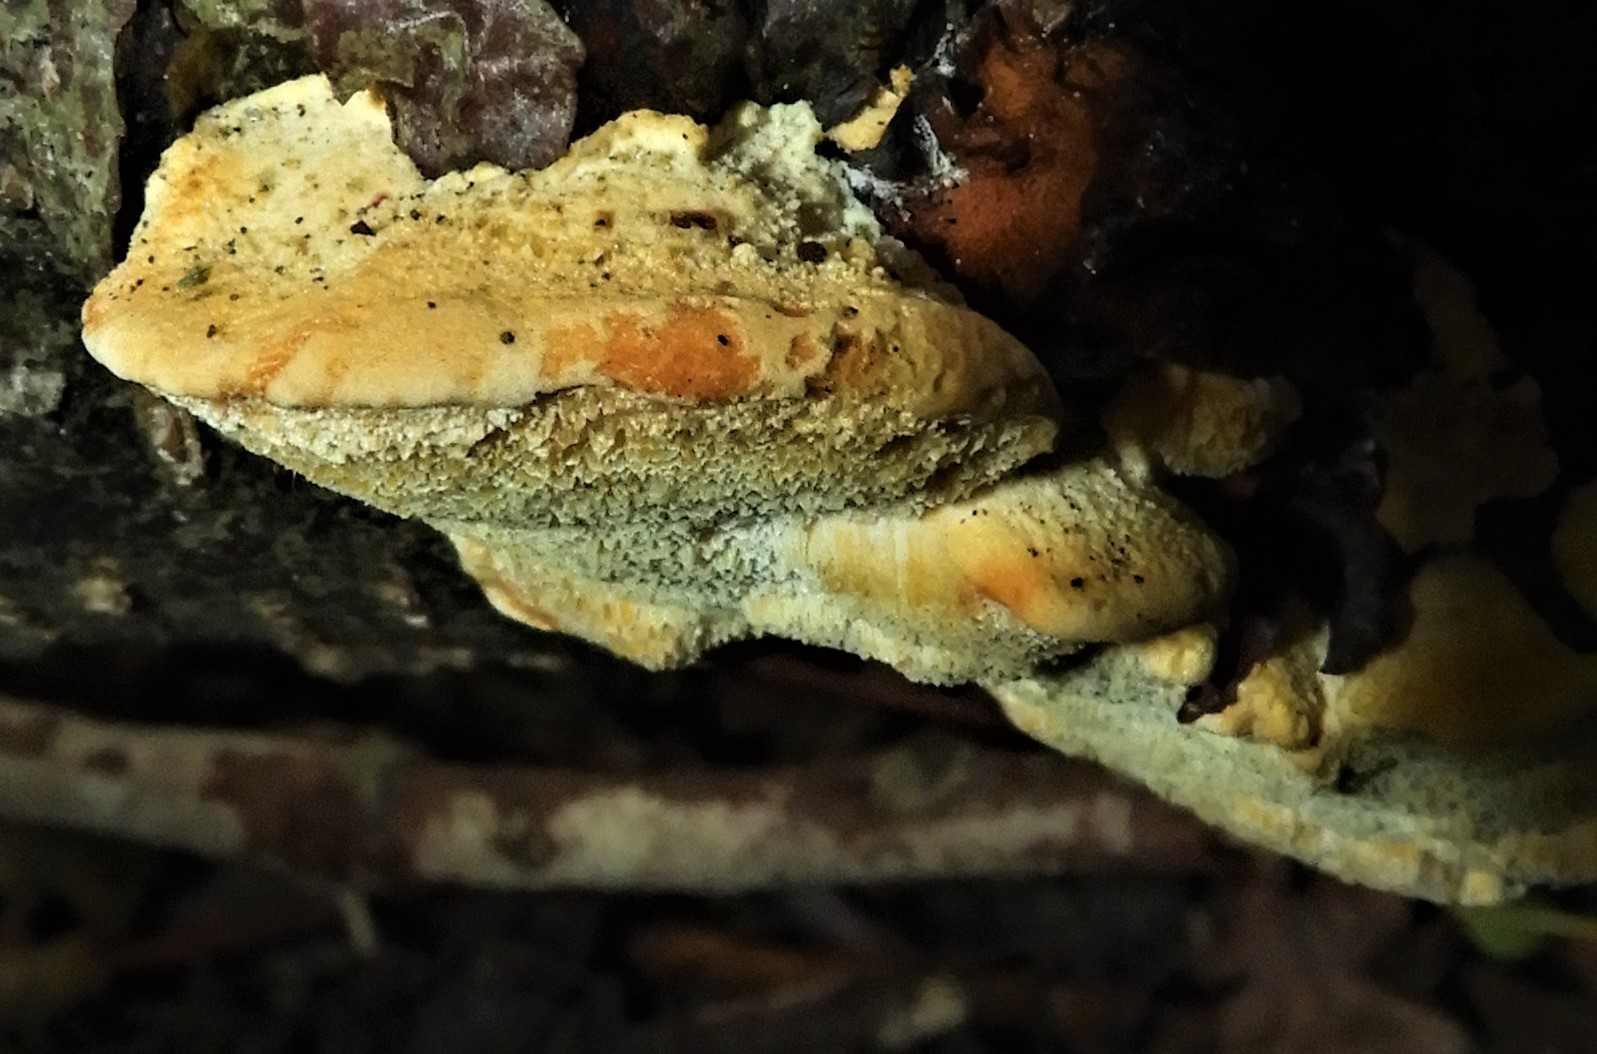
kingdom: Fungi
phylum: Basidiomycota
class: Agaricomycetes
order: Hymenochaetales
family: Hymenochaetaceae
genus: Xanthoporia
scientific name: Xanthoporia radiata
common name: elle-spejlporesvamp
